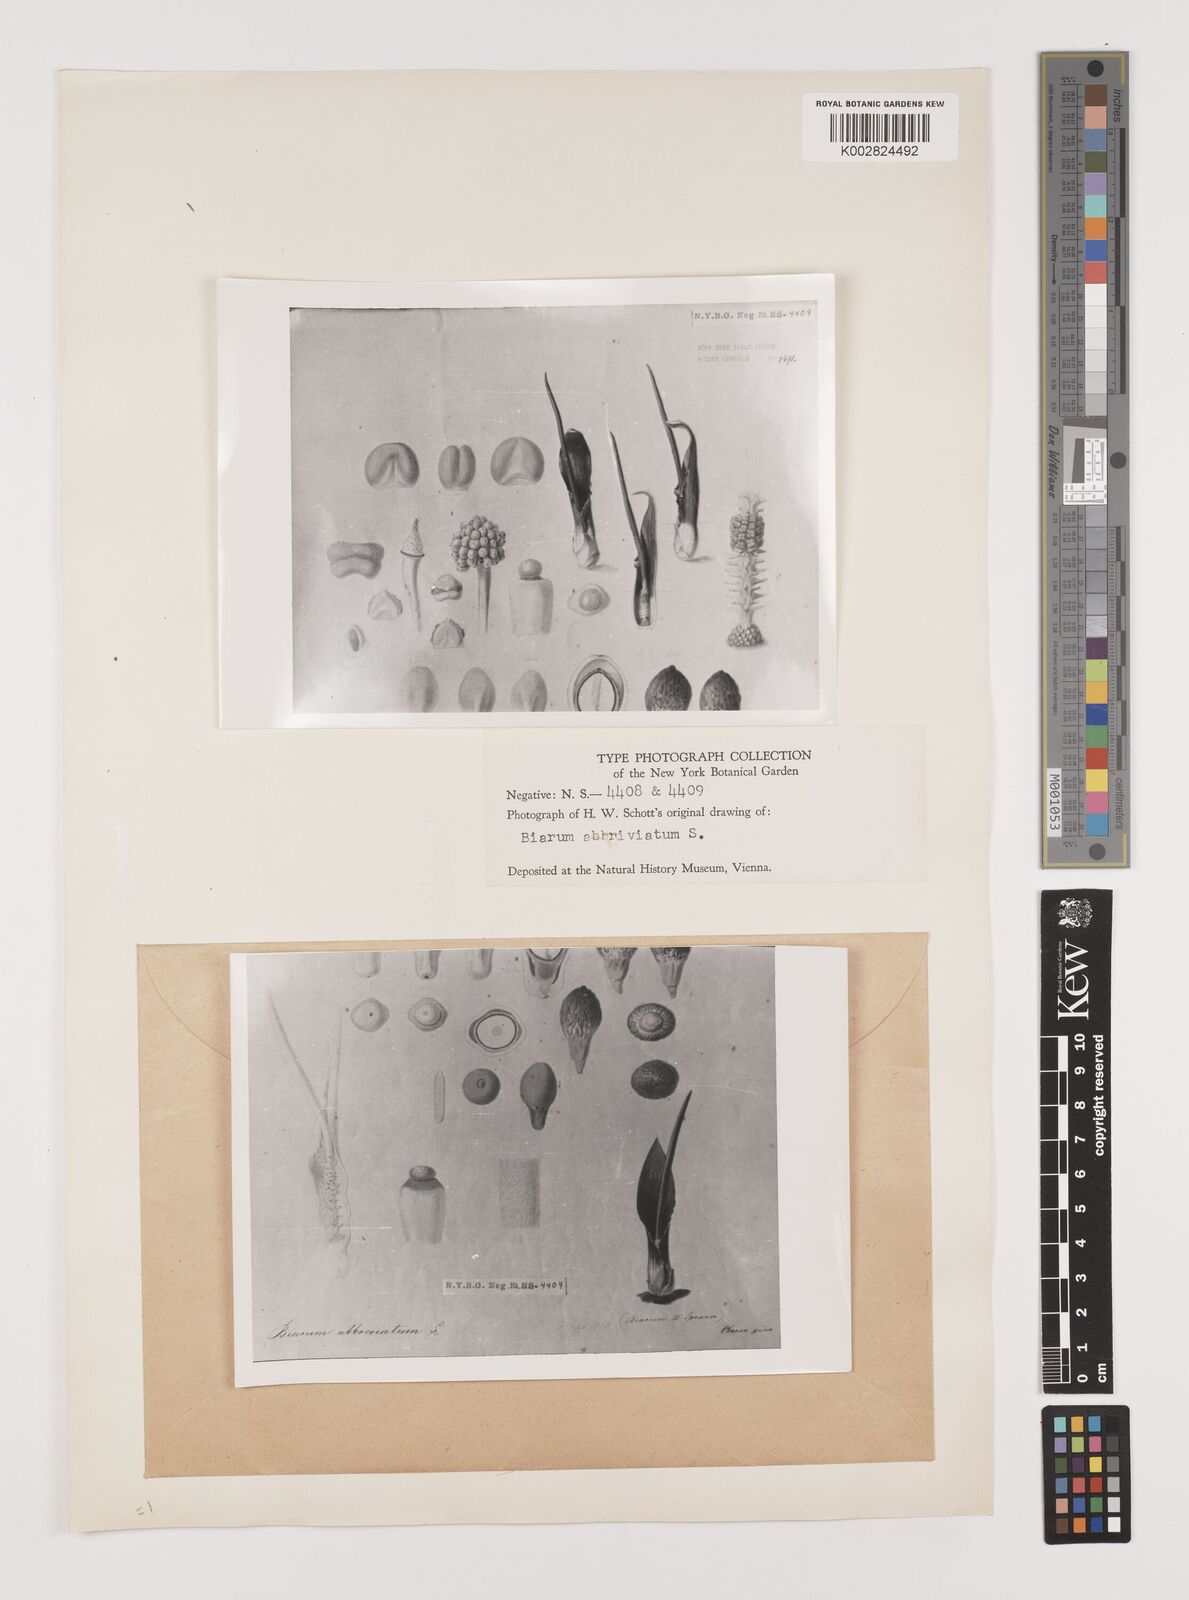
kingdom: Plantae
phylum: Tracheophyta
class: Liliopsida
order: Alismatales
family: Araceae
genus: Biarum
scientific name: Biarum tenuifolium
